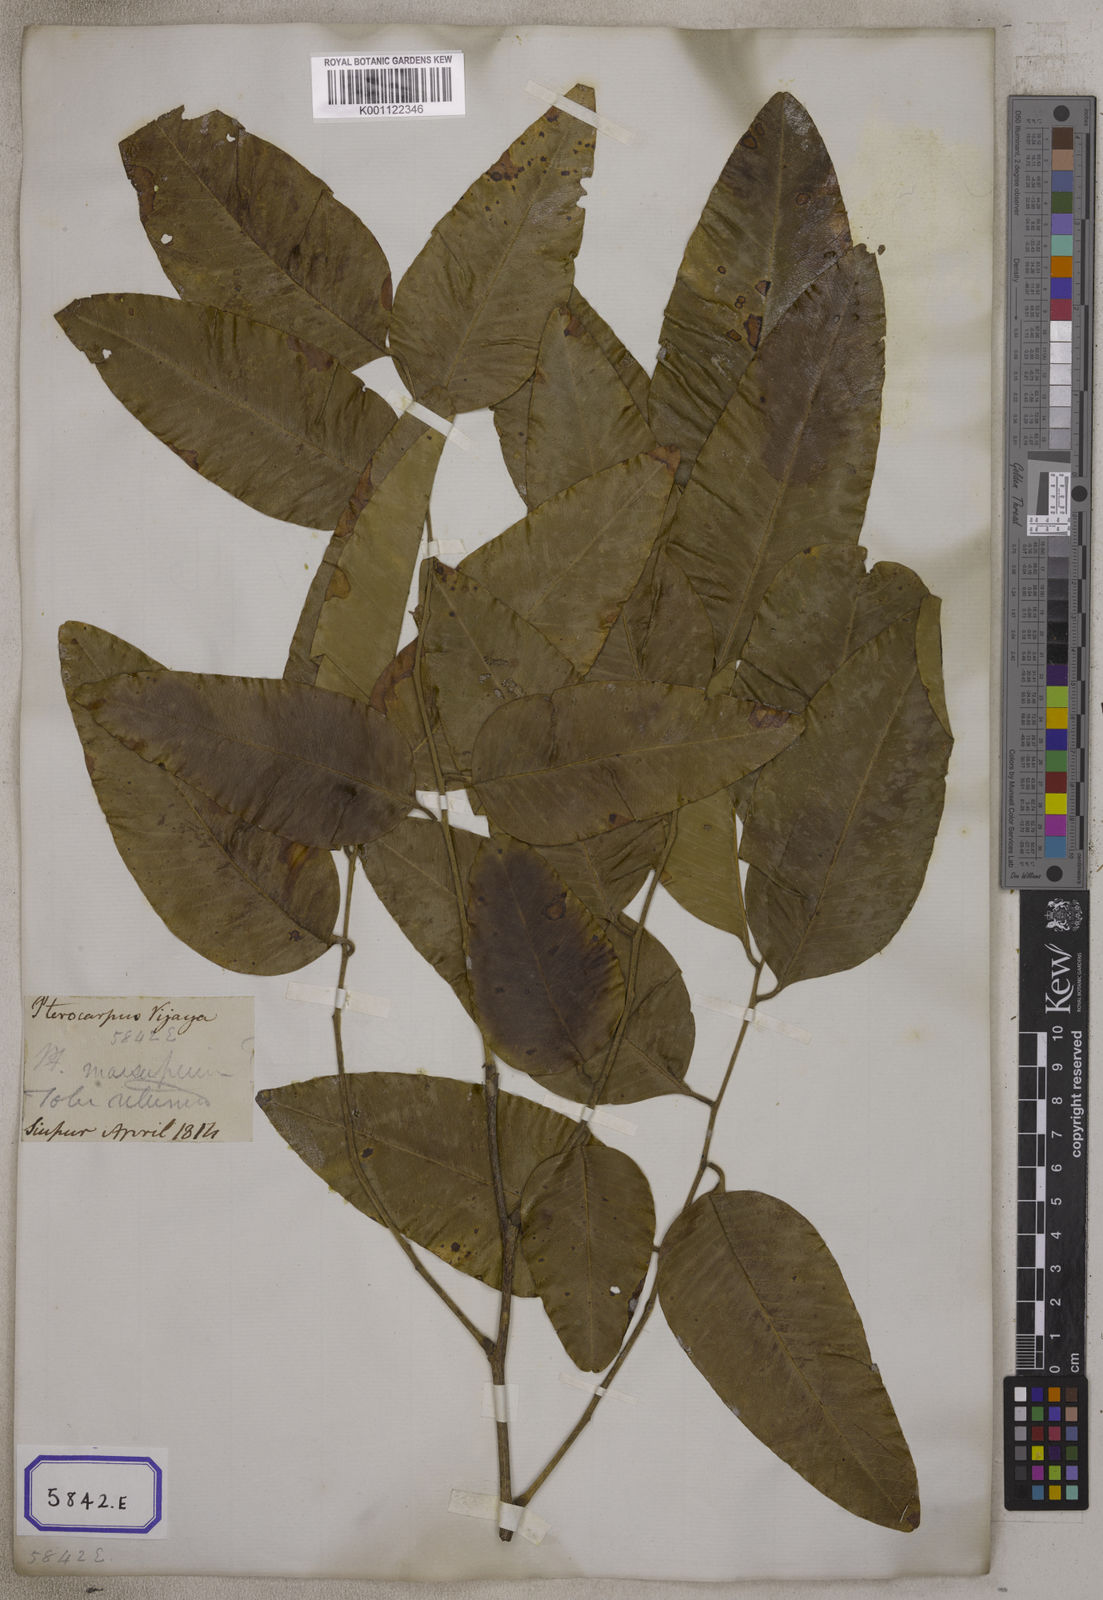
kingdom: Plantae
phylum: Tracheophyta
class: Magnoliopsida
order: Fabales
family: Fabaceae
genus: Pterocarpus
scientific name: Pterocarpus marsupium
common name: East indian/malabar kino
